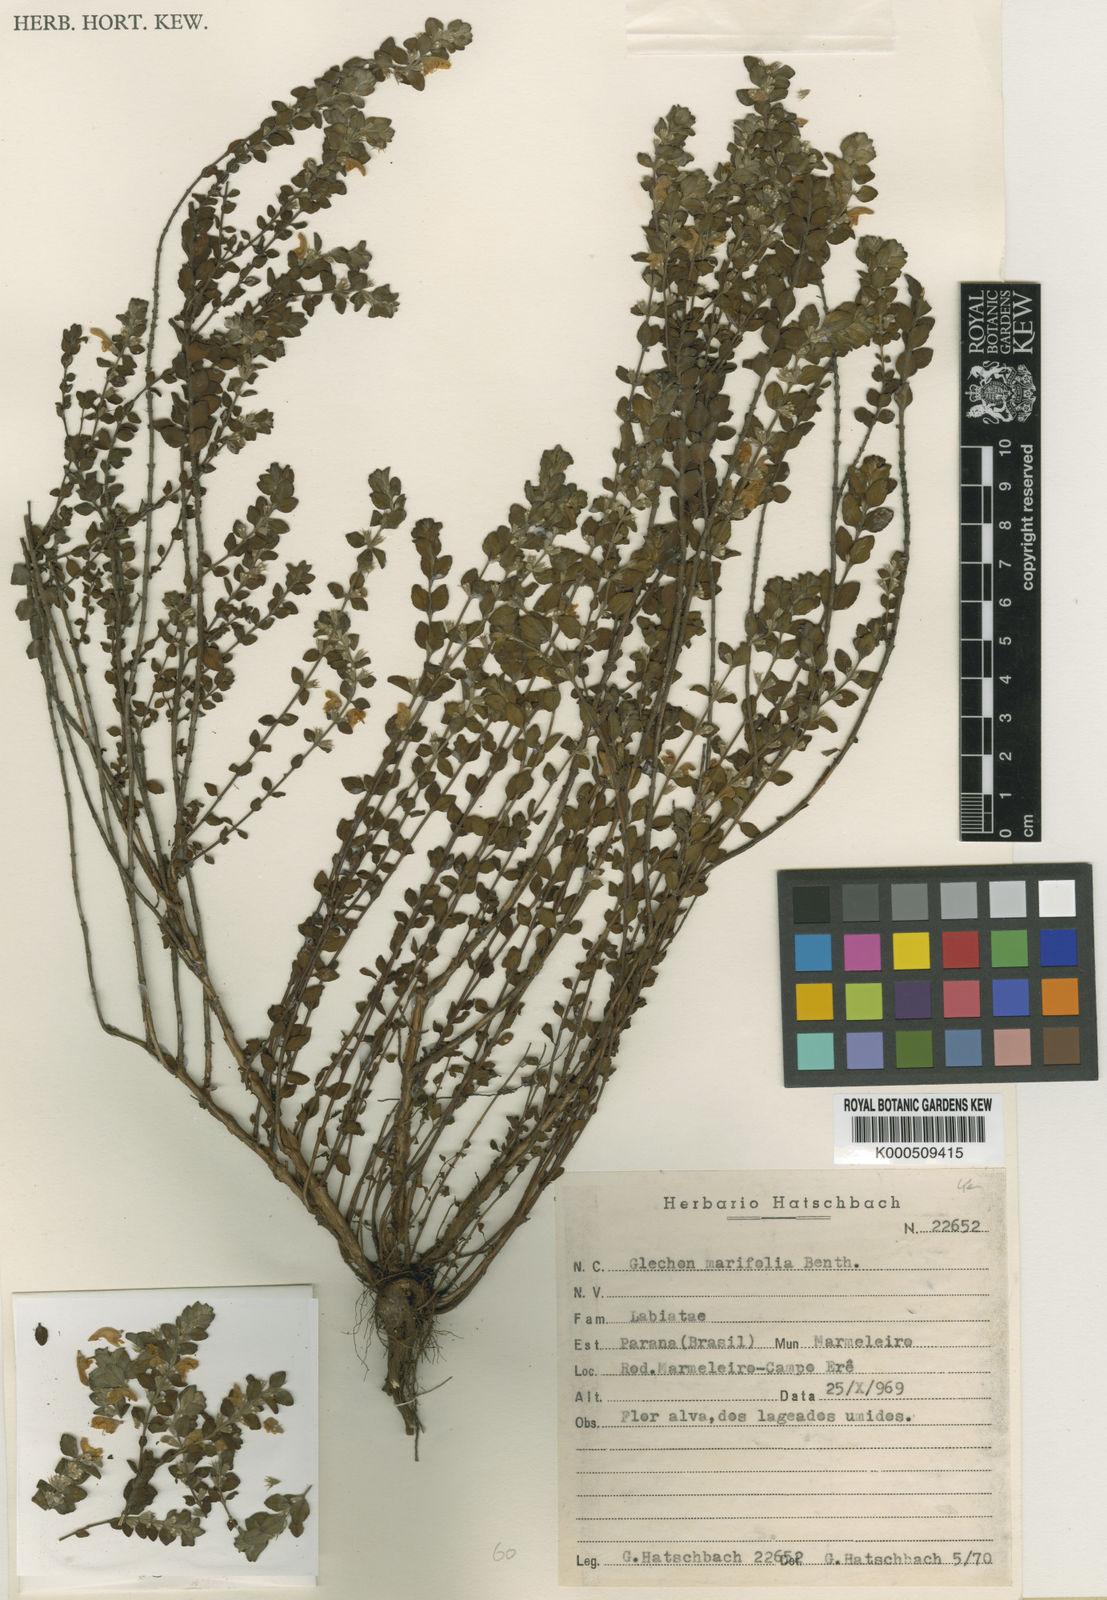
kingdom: Plantae
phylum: Tracheophyta
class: Magnoliopsida
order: Lamiales
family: Lamiaceae
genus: Glechon
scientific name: Glechon marifolia
